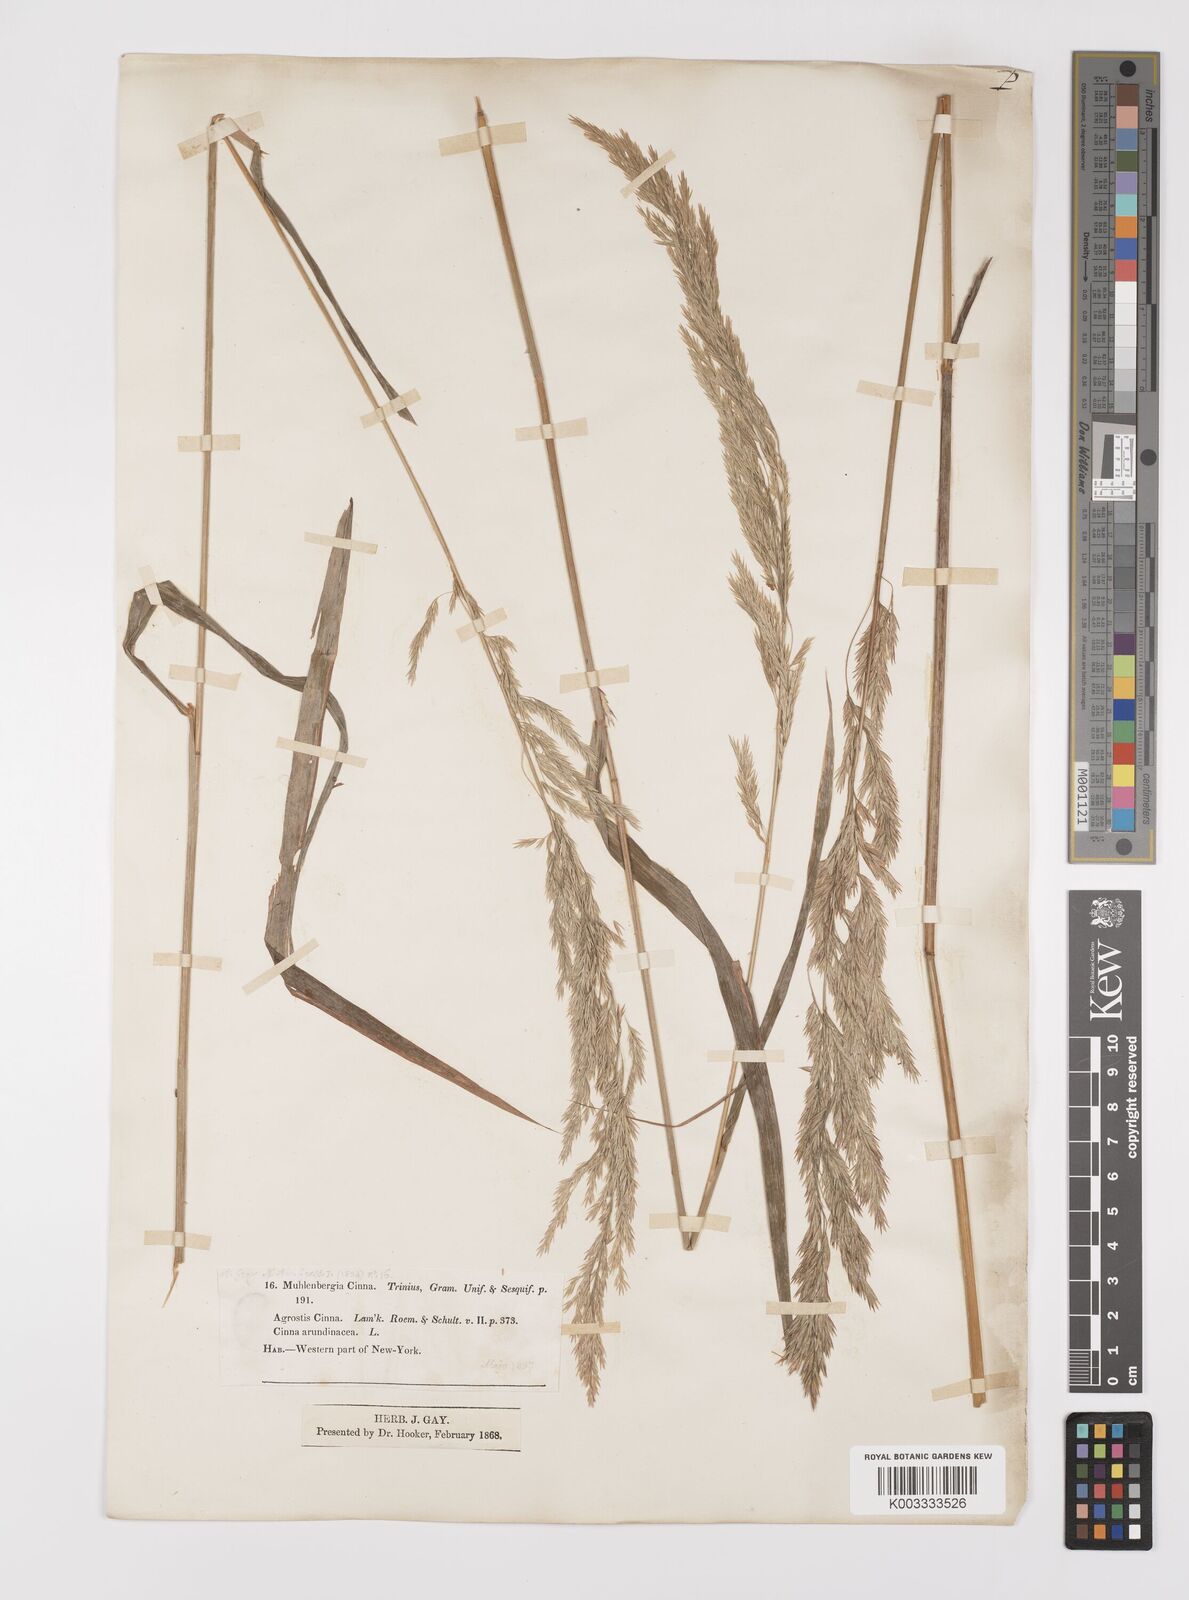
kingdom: Plantae
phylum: Tracheophyta
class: Liliopsida
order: Poales
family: Poaceae
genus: Cinna
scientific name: Cinna
